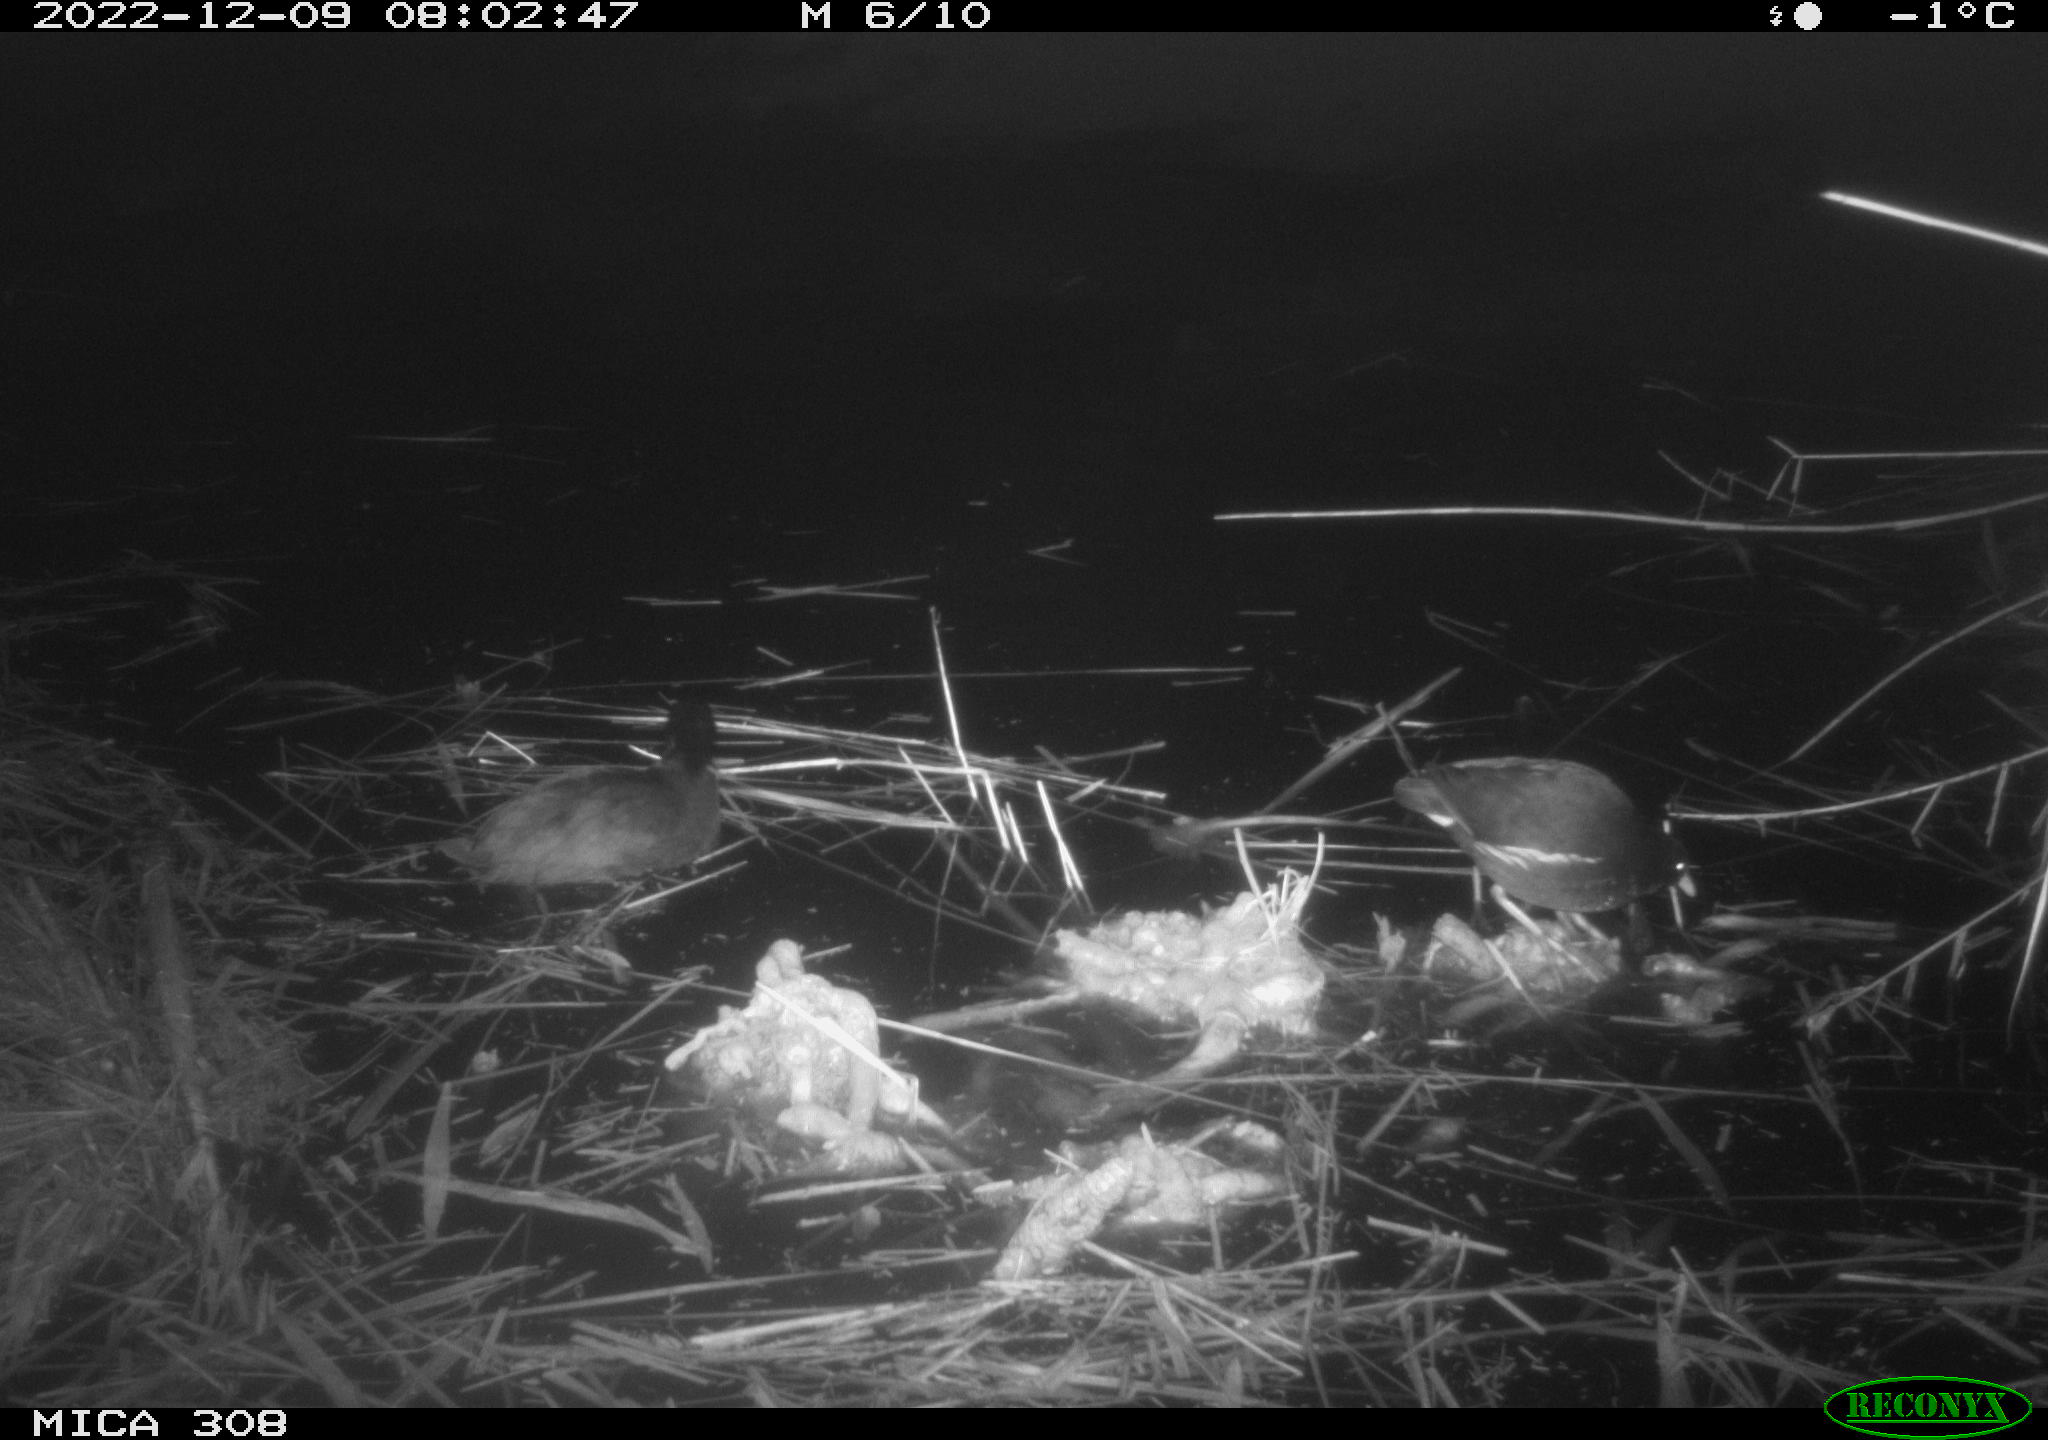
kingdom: Animalia
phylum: Chordata
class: Aves
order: Gruiformes
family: Rallidae
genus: Fulica
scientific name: Fulica atra
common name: Eurasian coot
